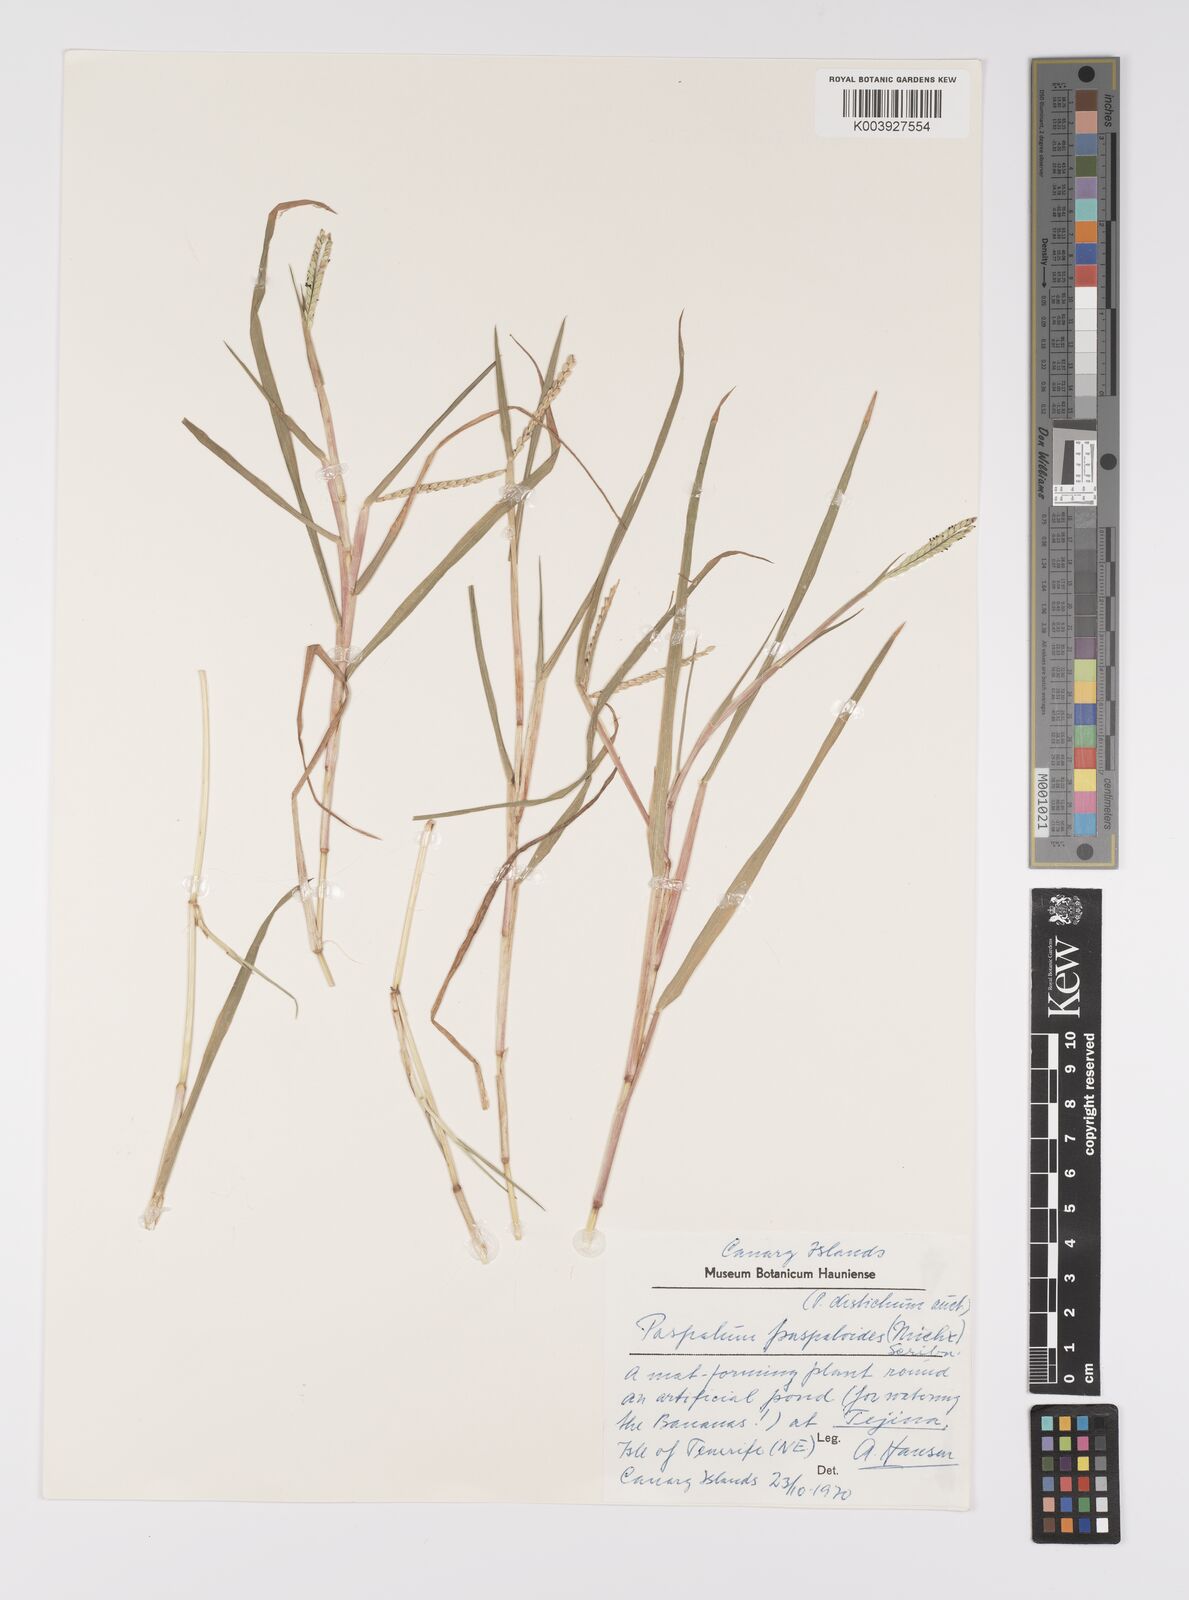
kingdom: Plantae
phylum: Tracheophyta
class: Liliopsida
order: Poales
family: Poaceae
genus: Paspalum
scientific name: Paspalum distichum
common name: Knotgrass
